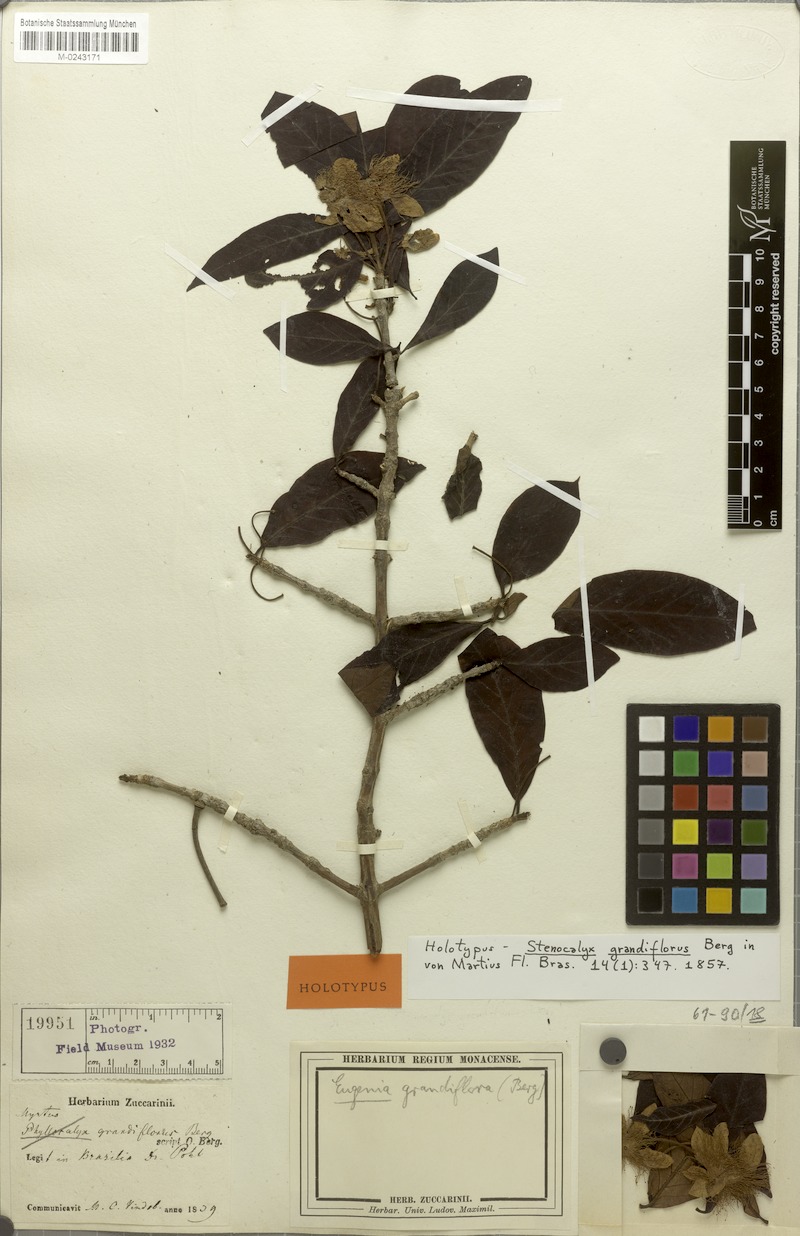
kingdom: Plantae
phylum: Tracheophyta
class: Magnoliopsida
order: Myrtales
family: Myrtaceae
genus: Eugenia
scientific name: Eugenia megaflora
